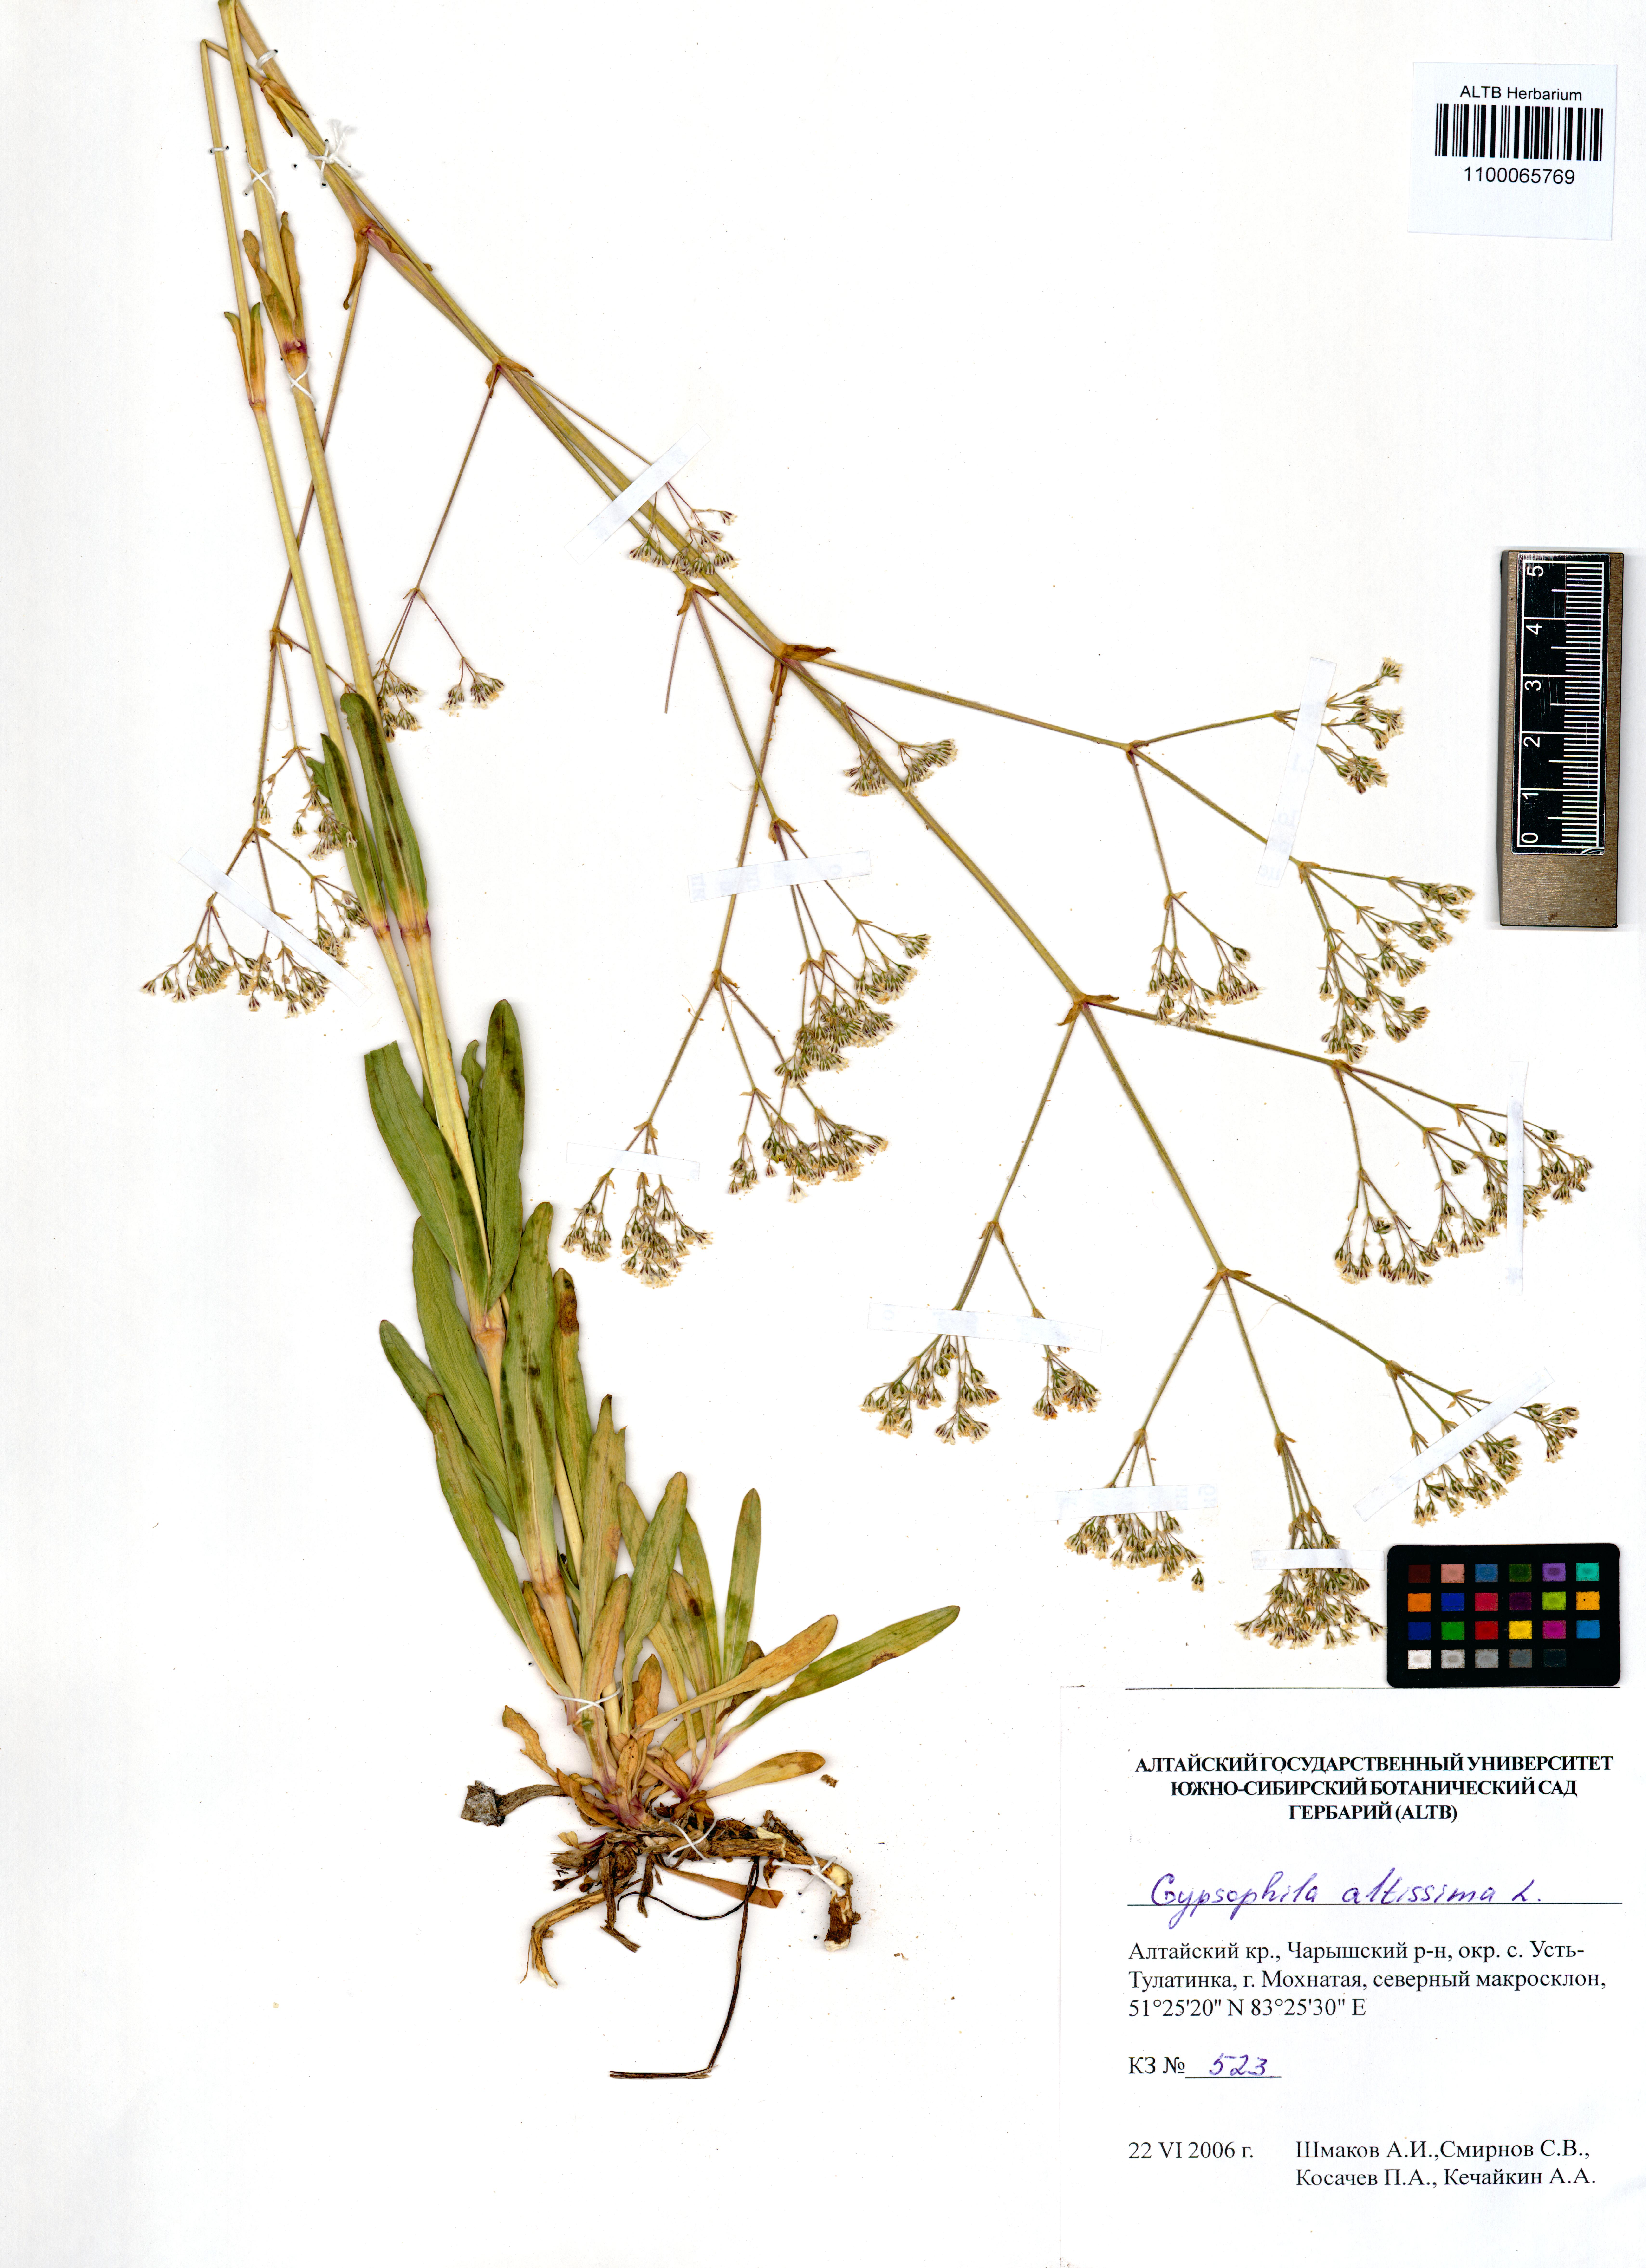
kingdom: Plantae
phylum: Tracheophyta
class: Magnoliopsida
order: Caryophyllales
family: Caryophyllaceae
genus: Gypsophila
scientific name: Gypsophila altissima
